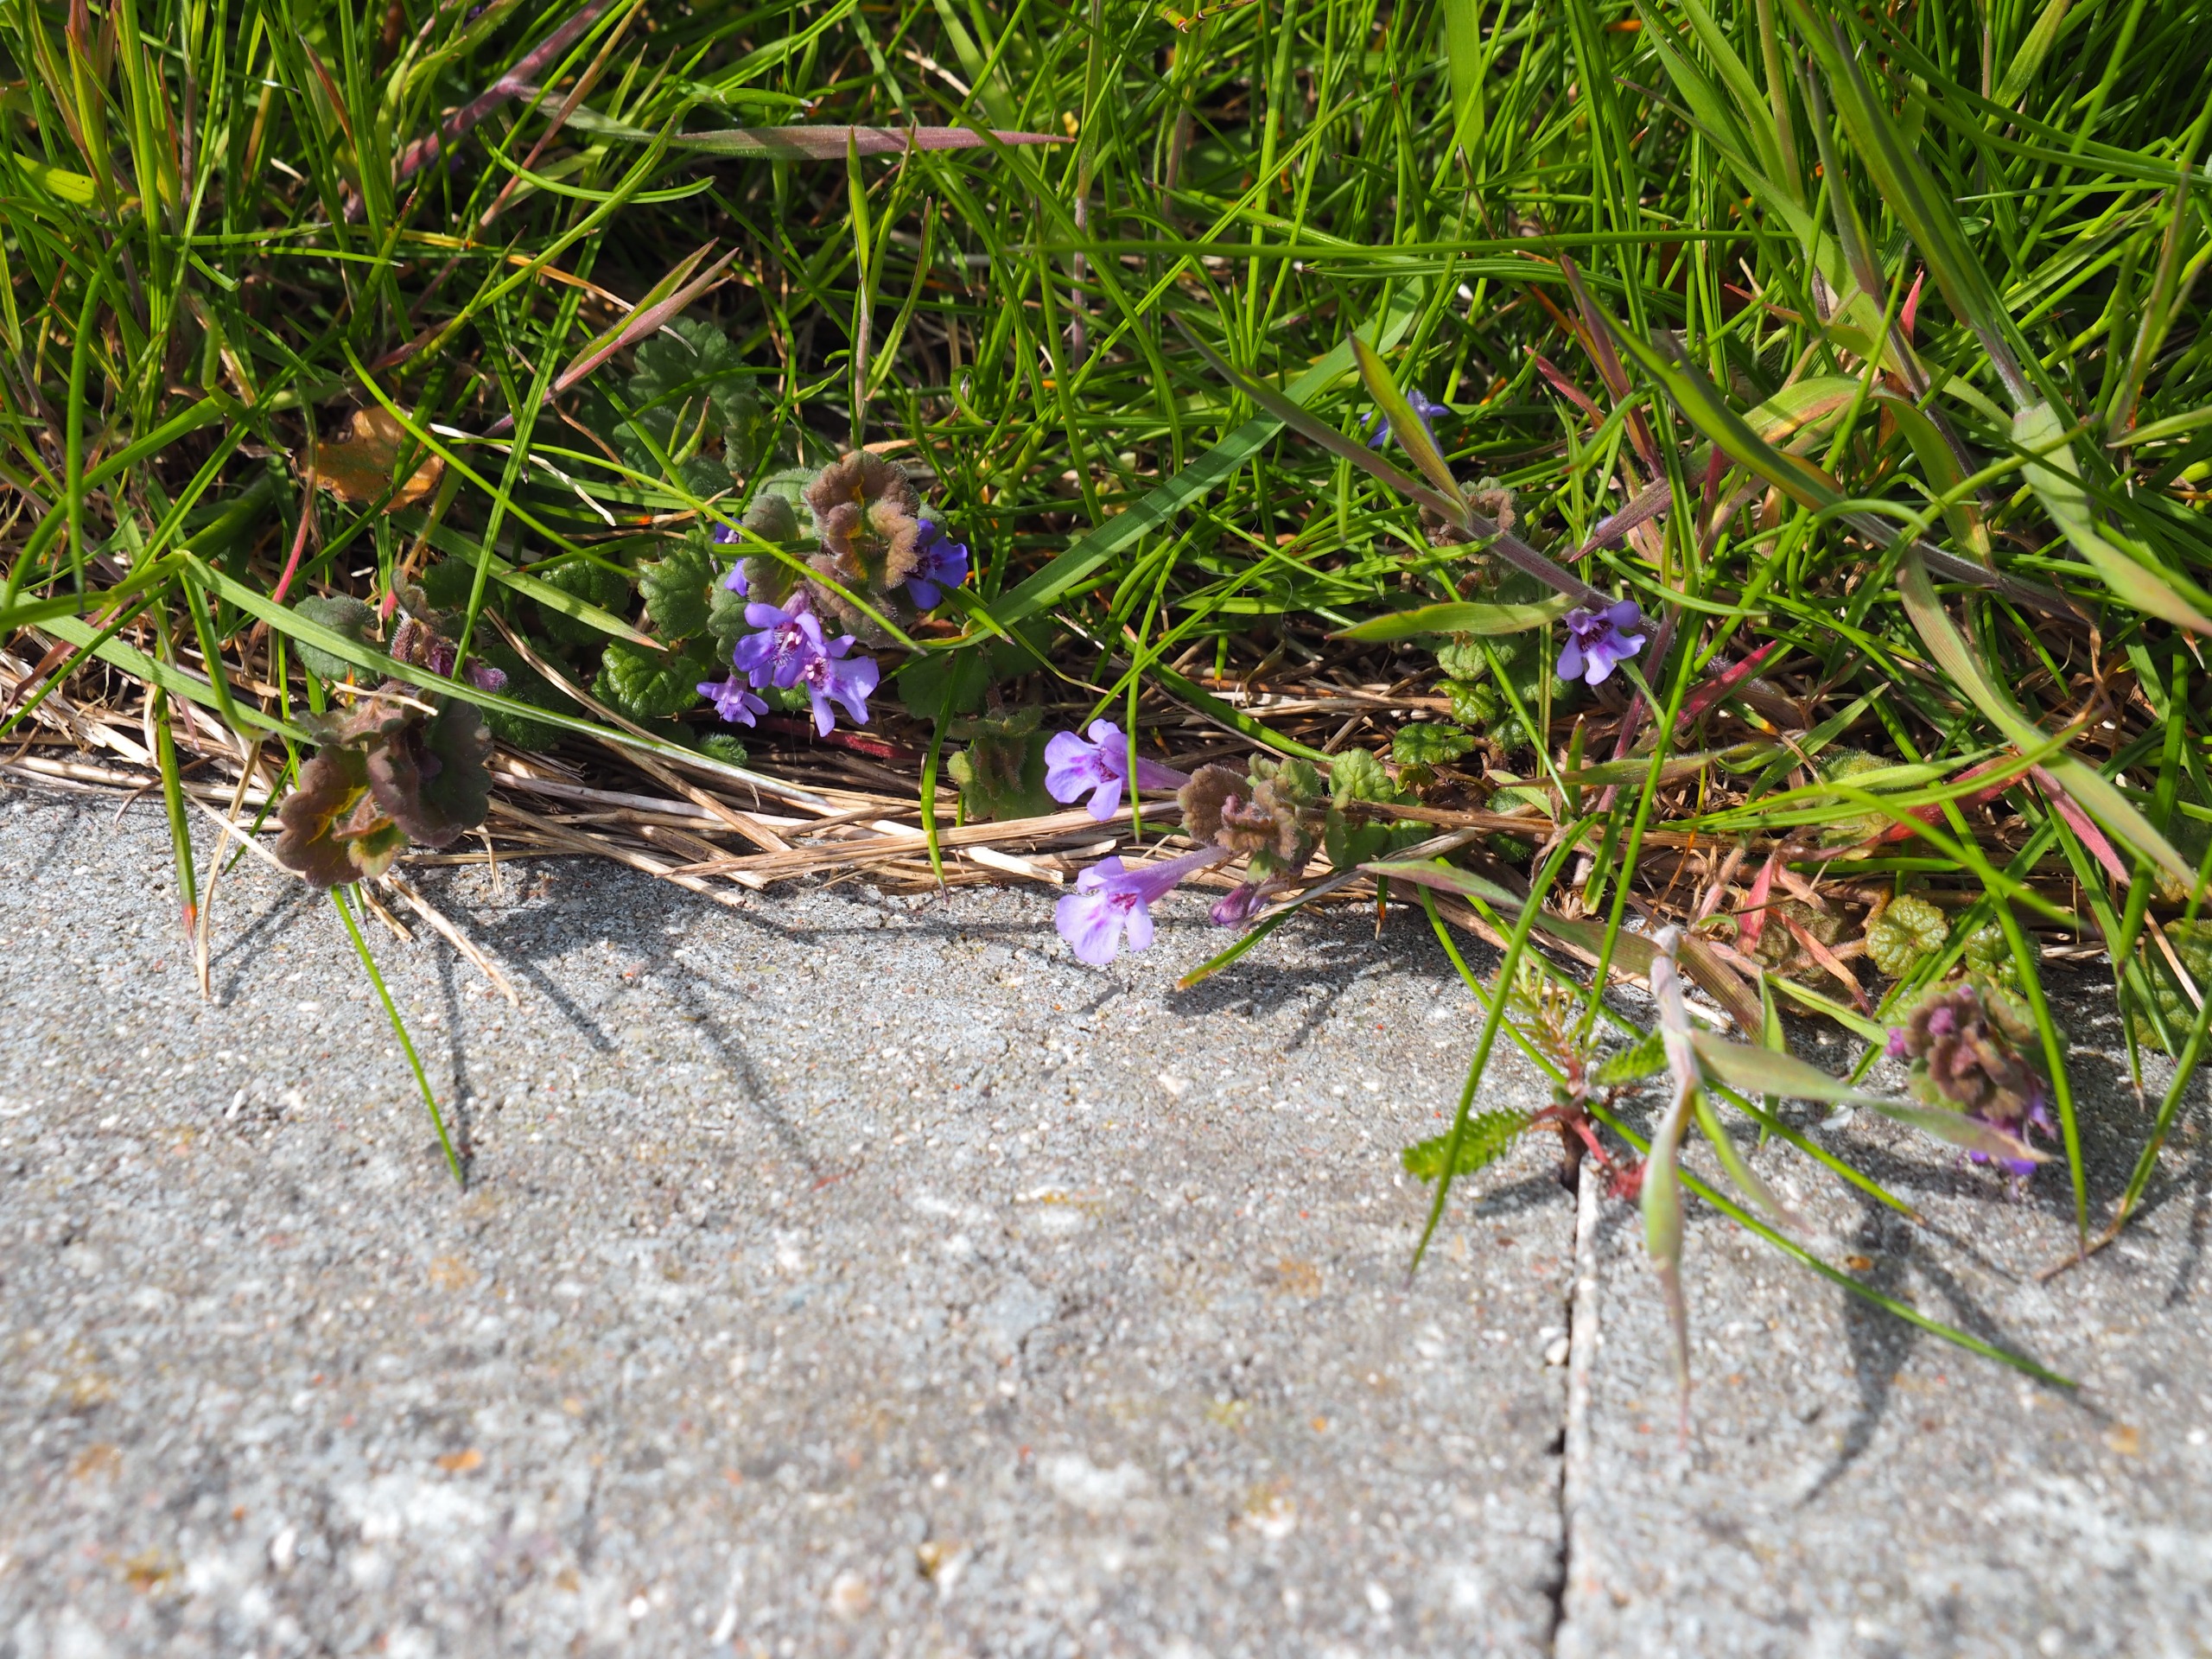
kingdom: Plantae
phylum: Tracheophyta
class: Magnoliopsida
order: Lamiales
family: Lamiaceae
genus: Glechoma
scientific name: Glechoma hederacea
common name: Korsknap
